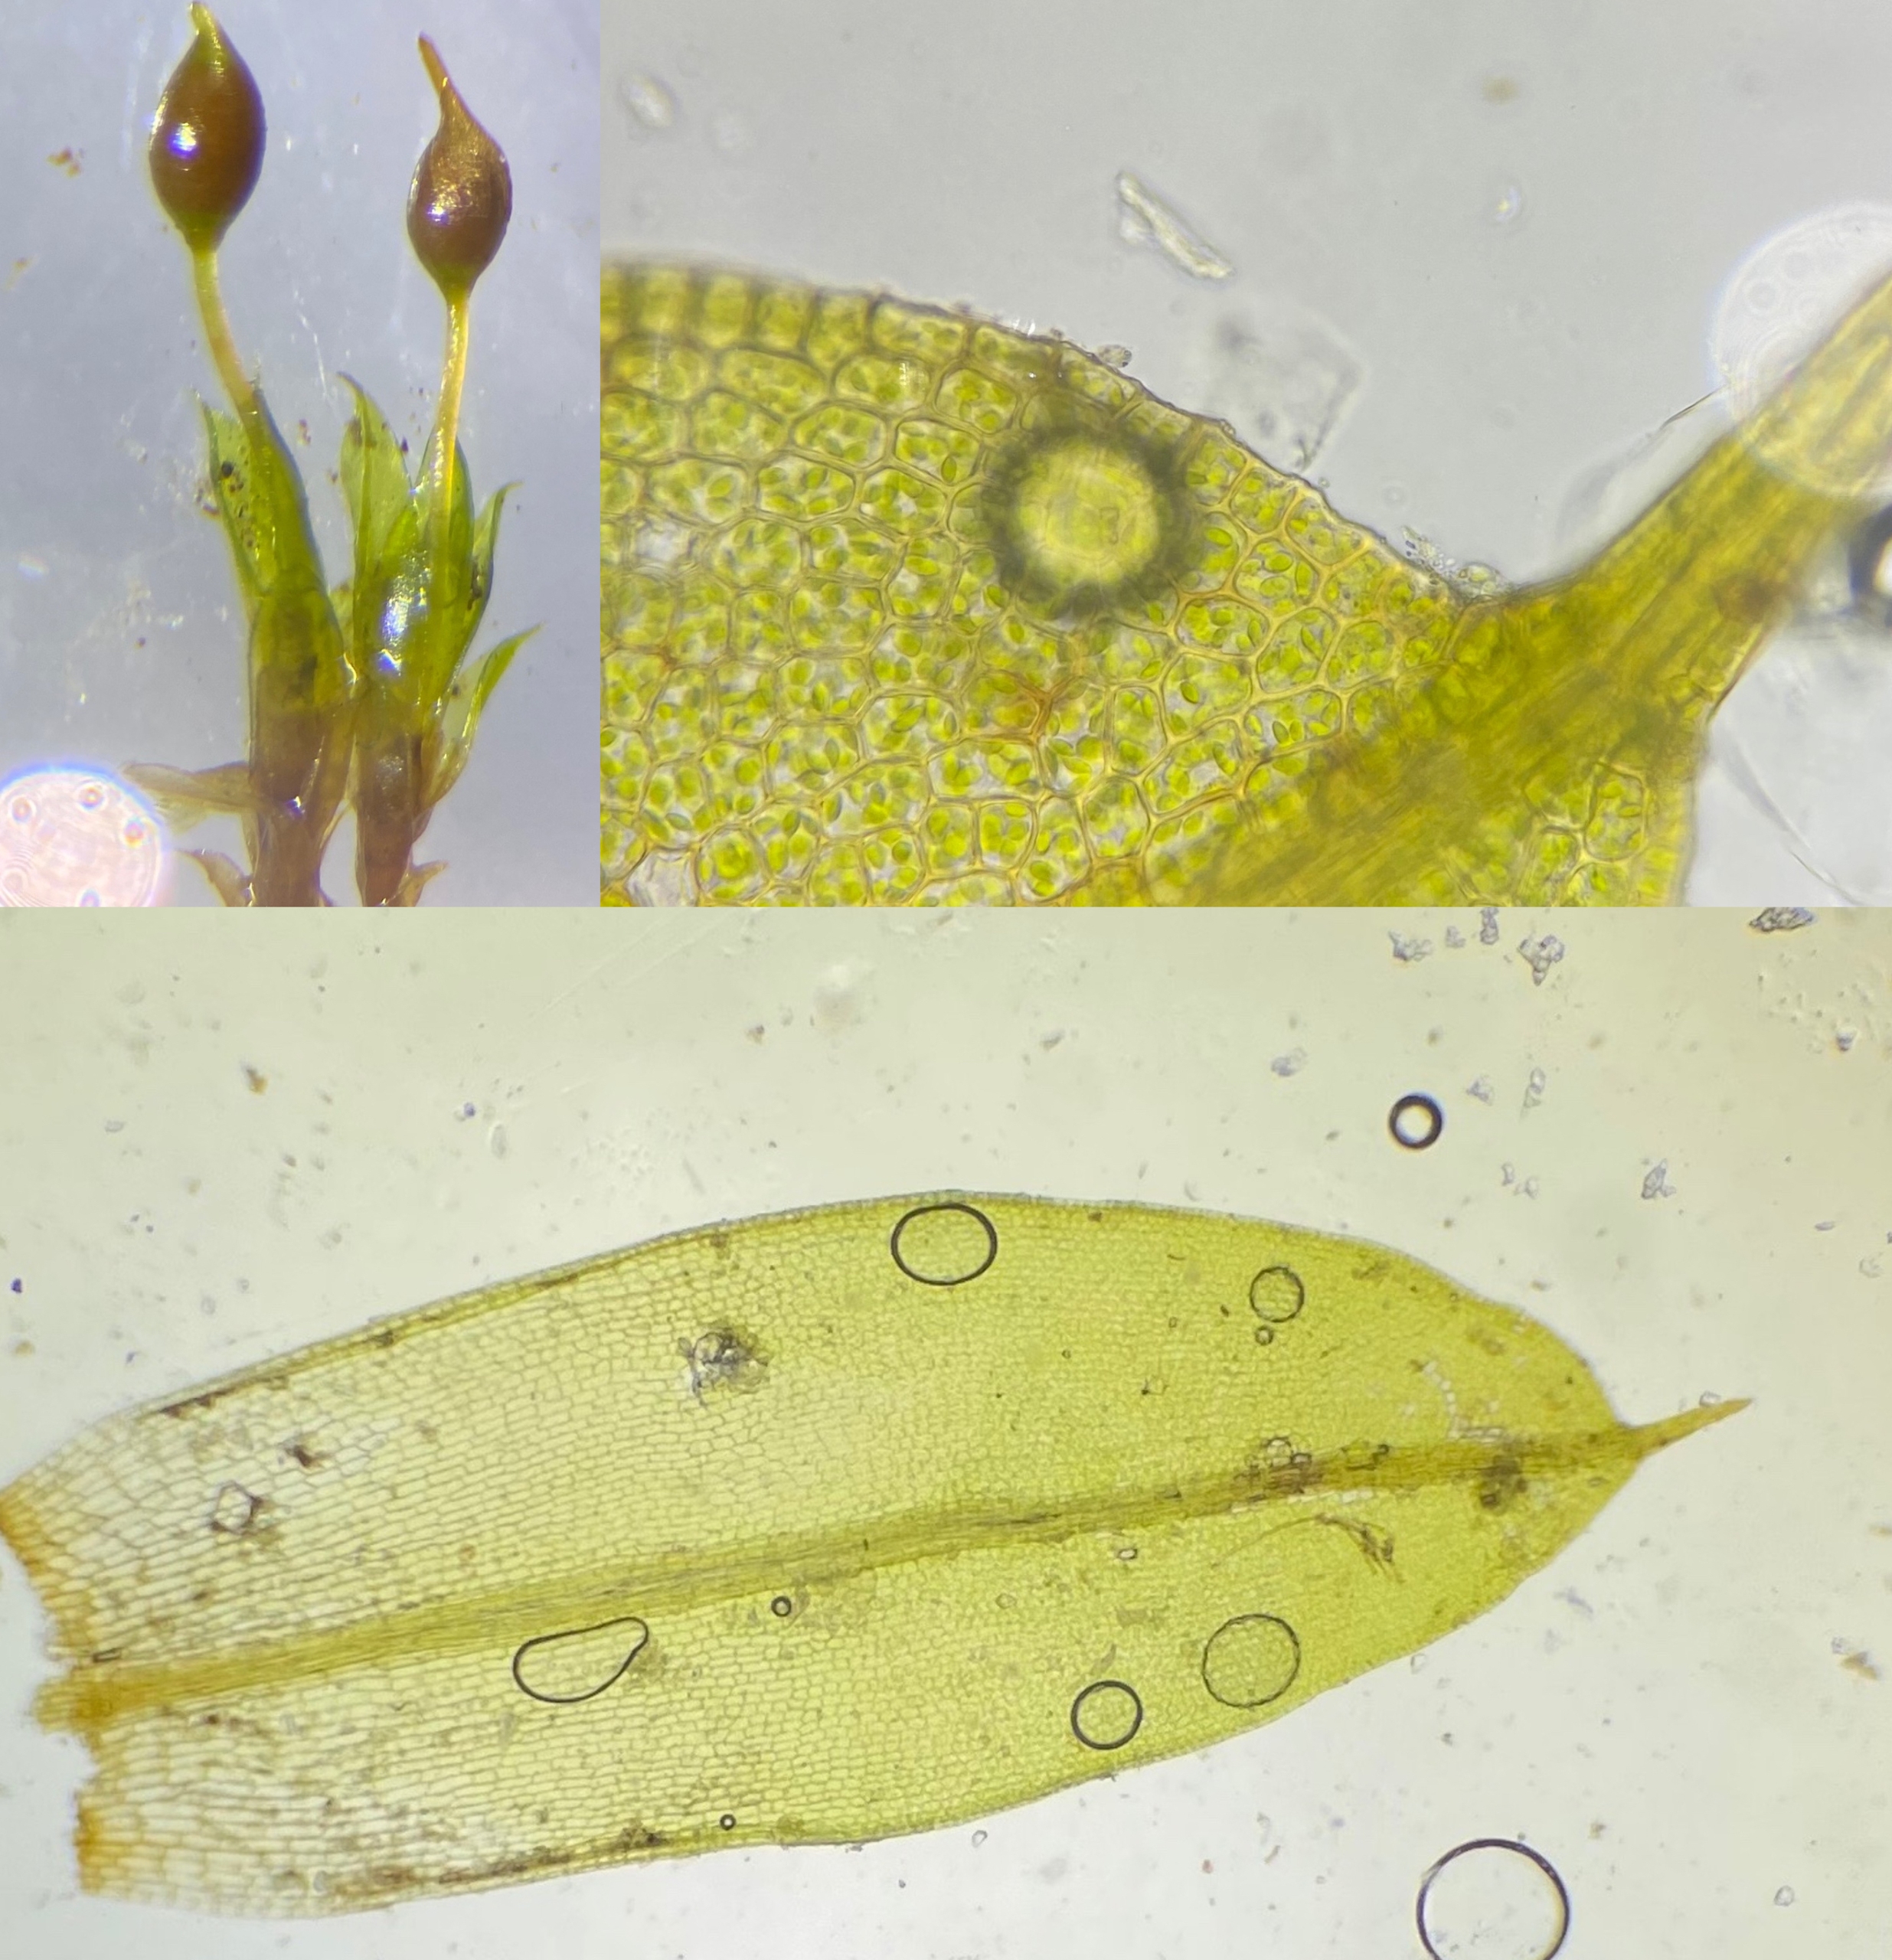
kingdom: Plantae
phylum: Bryophyta
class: Bryopsida
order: Pottiales
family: Pottiaceae
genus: Tortula
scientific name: Tortula protobryoides
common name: Lukket bægermos
